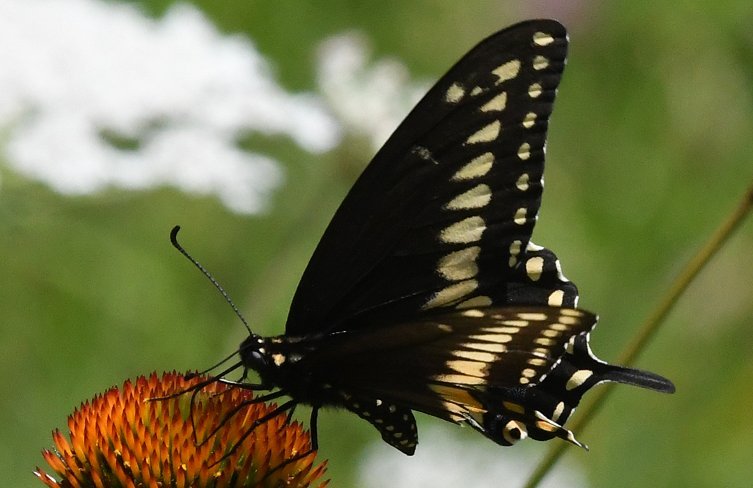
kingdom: Animalia
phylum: Arthropoda
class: Insecta
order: Lepidoptera
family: Papilionidae
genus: Papilio
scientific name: Papilio polyxenes
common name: Black Swallowtail
